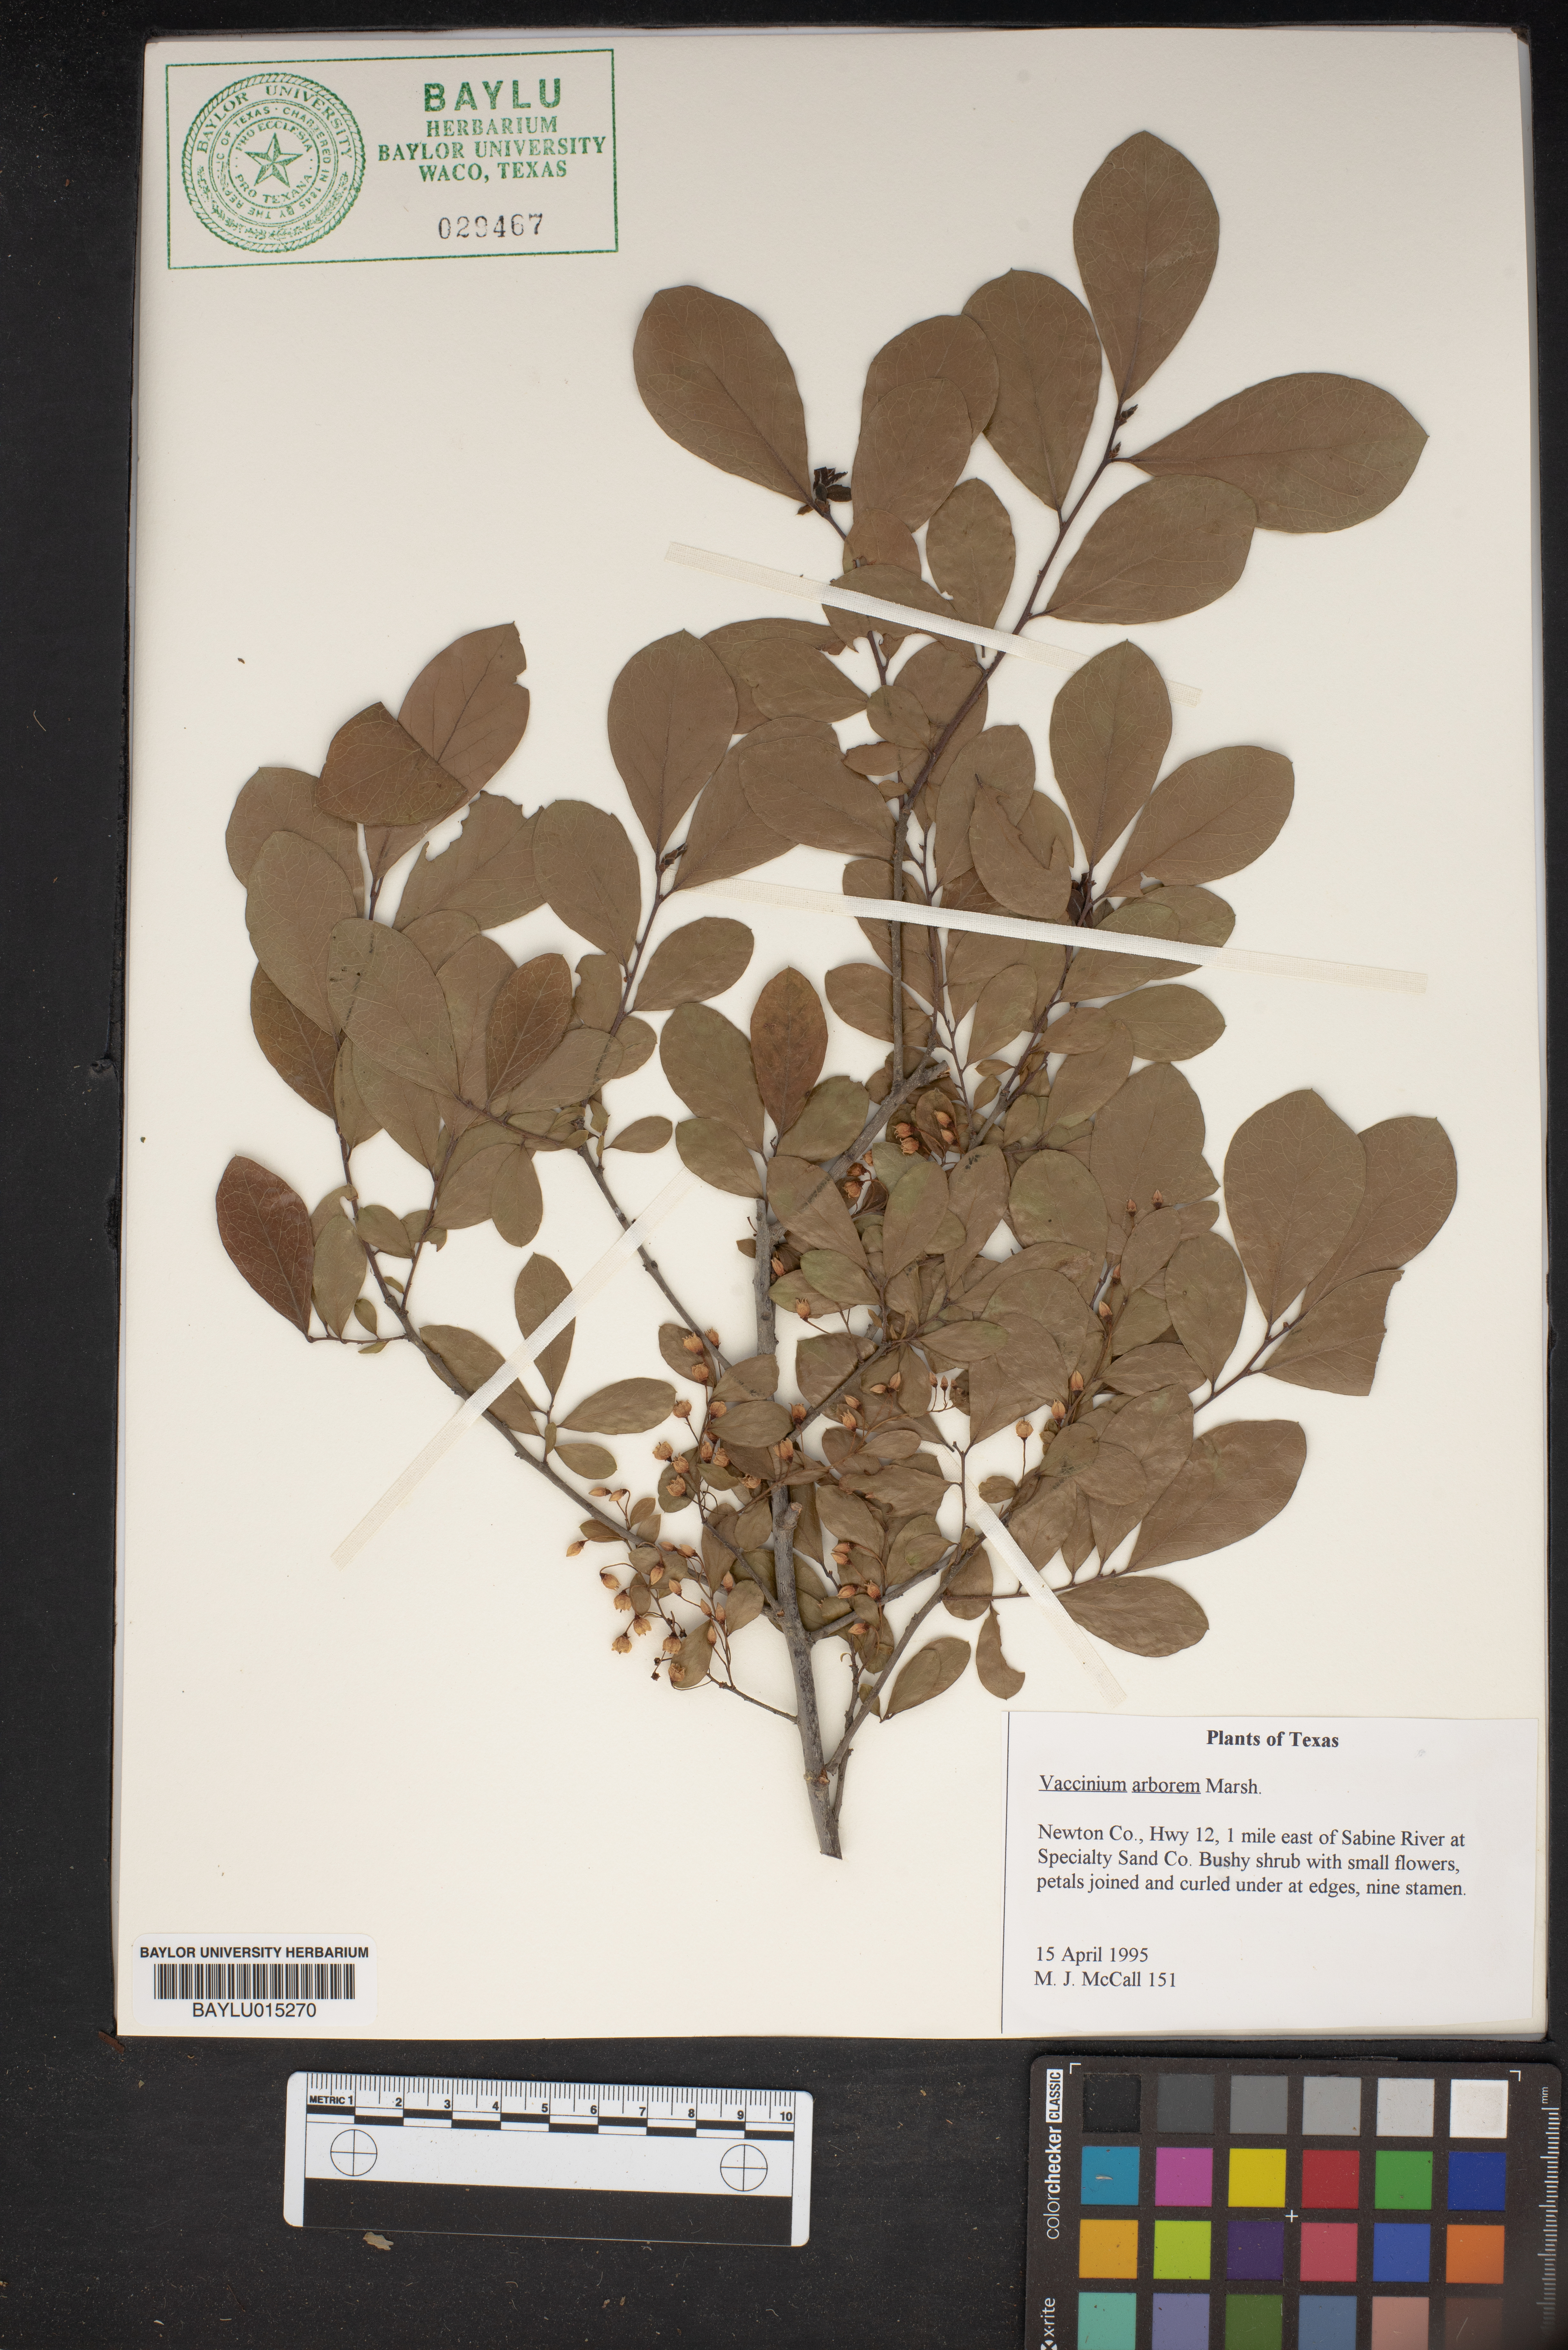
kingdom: Plantae
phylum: Tracheophyta
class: Magnoliopsida
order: Ericales
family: Ericaceae
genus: Vaccinium
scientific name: Vaccinium arboreum
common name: Farkleberry
